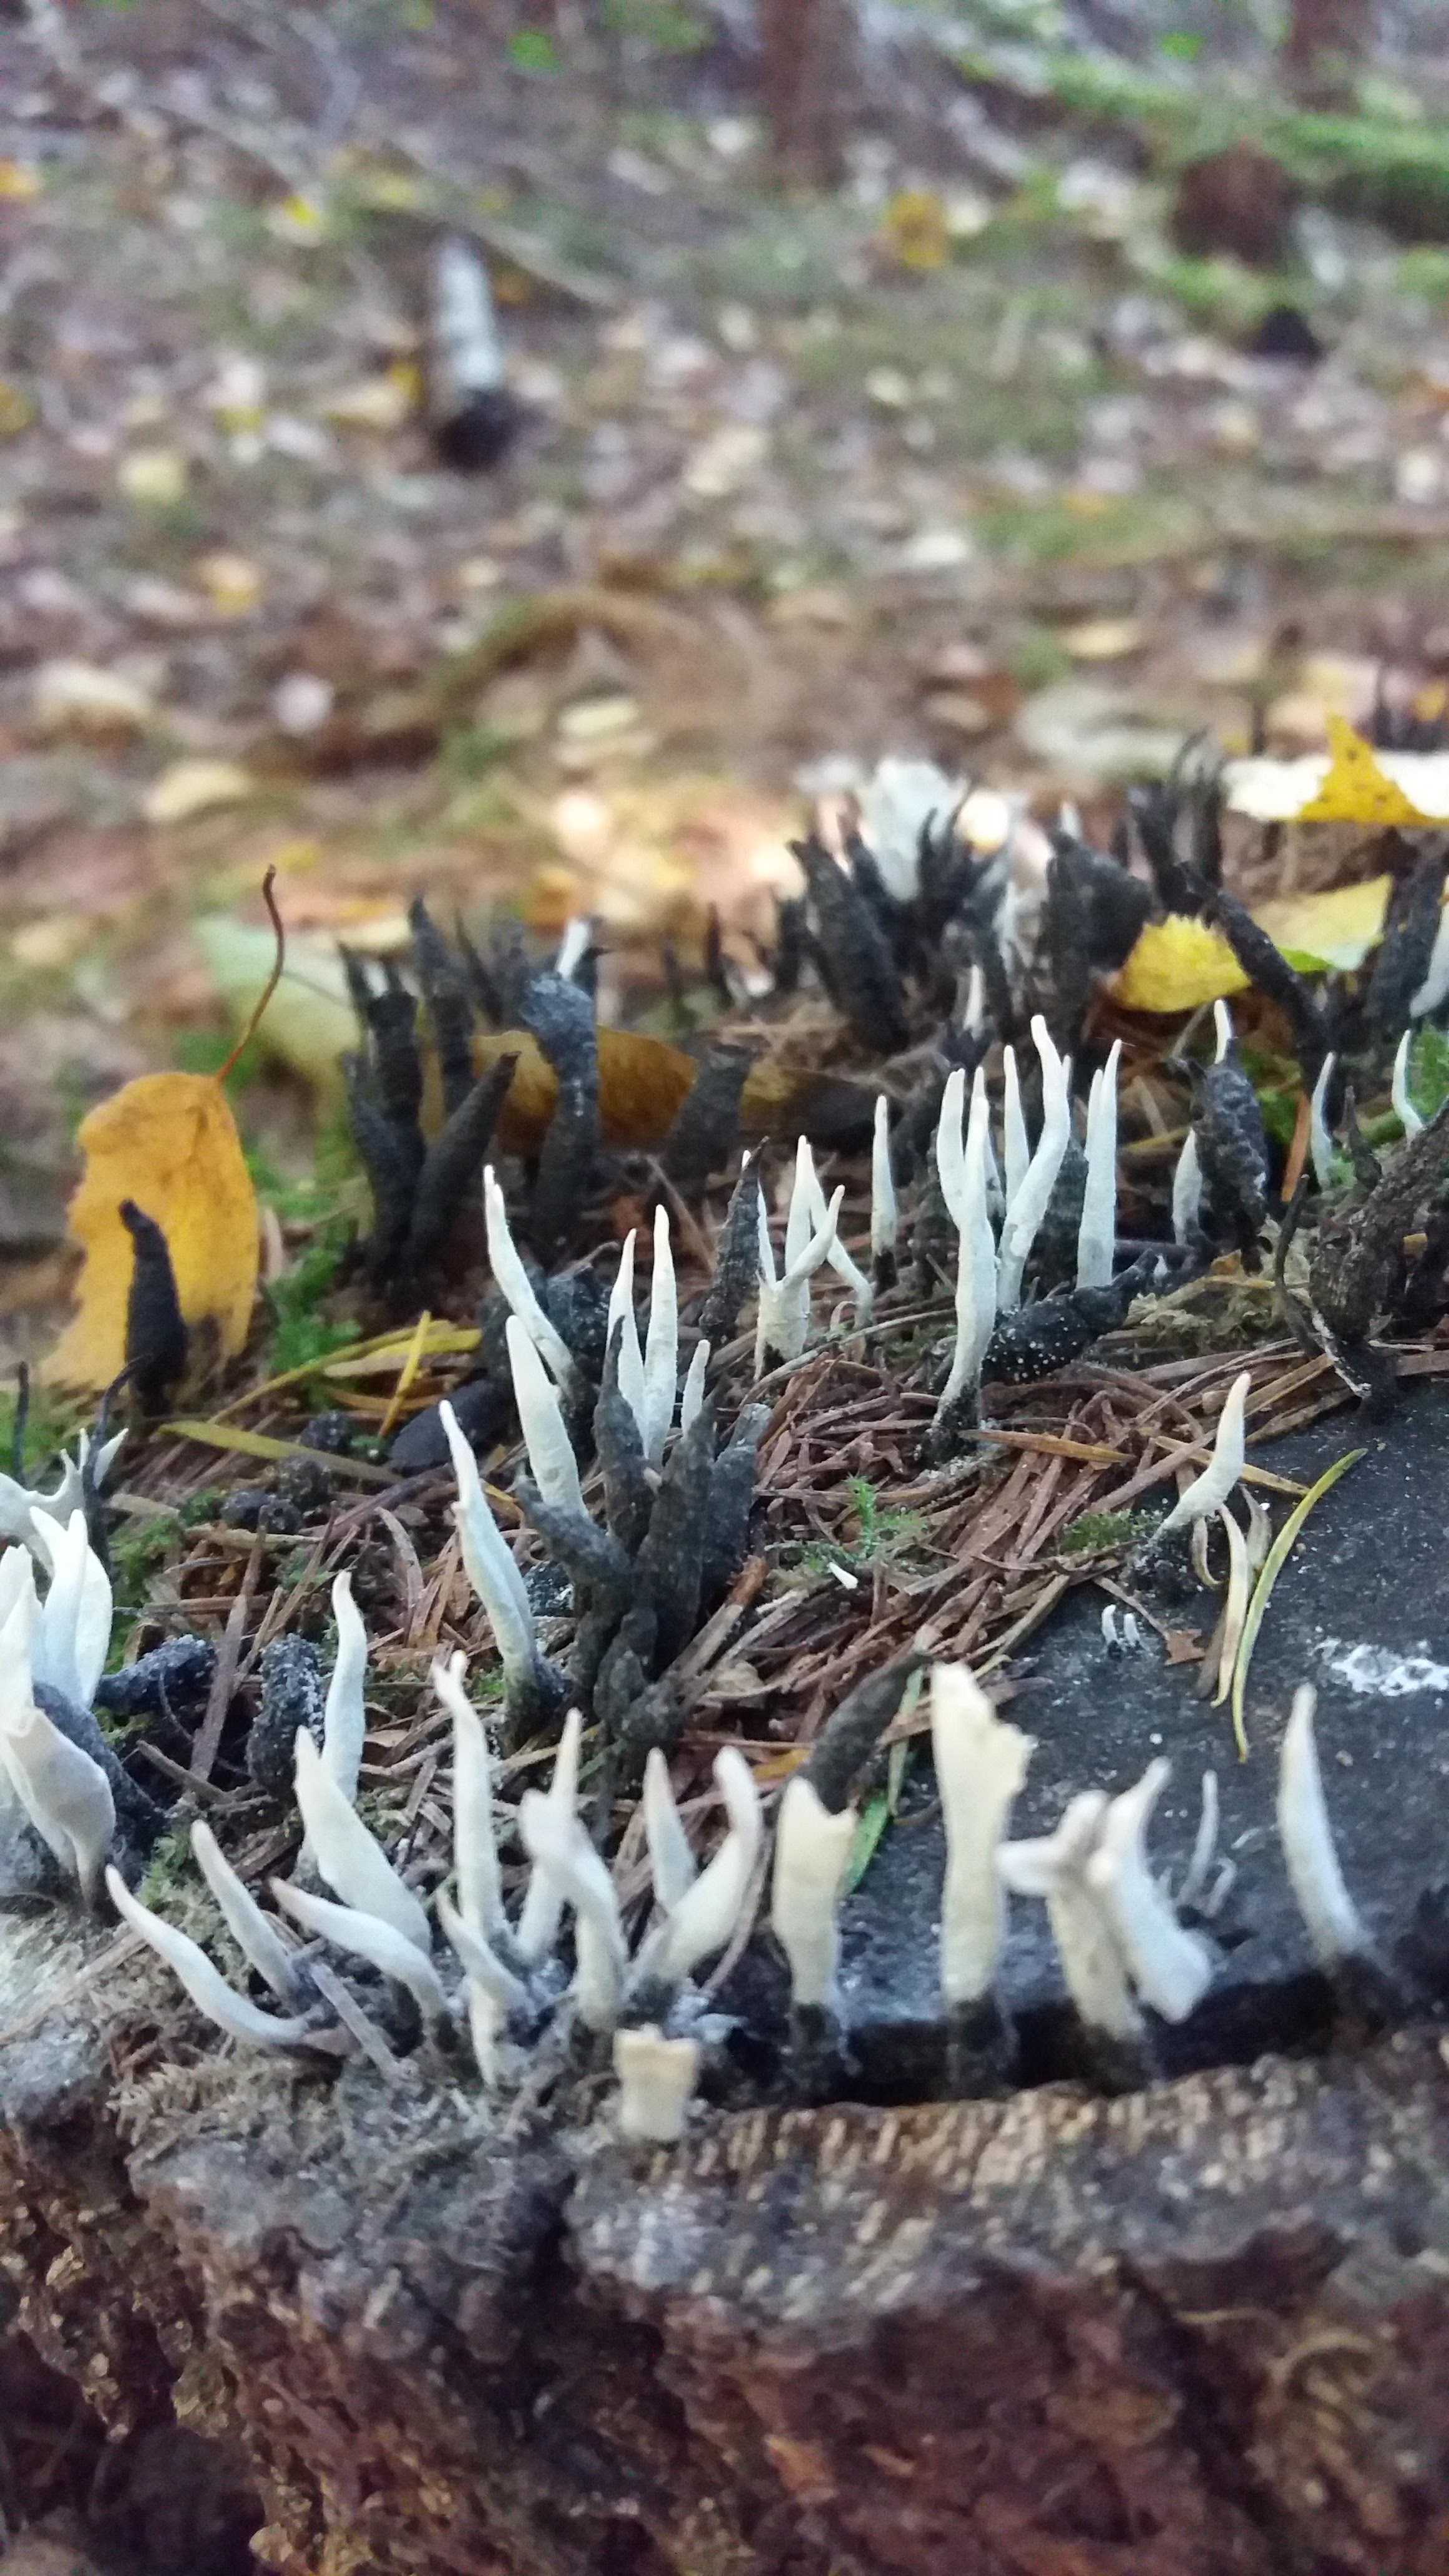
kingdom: Fungi
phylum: Ascomycota
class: Sordariomycetes
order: Xylariales
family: Xylariaceae
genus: Xylaria
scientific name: Xylaria hypoxylon
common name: grenet stødsvamp
